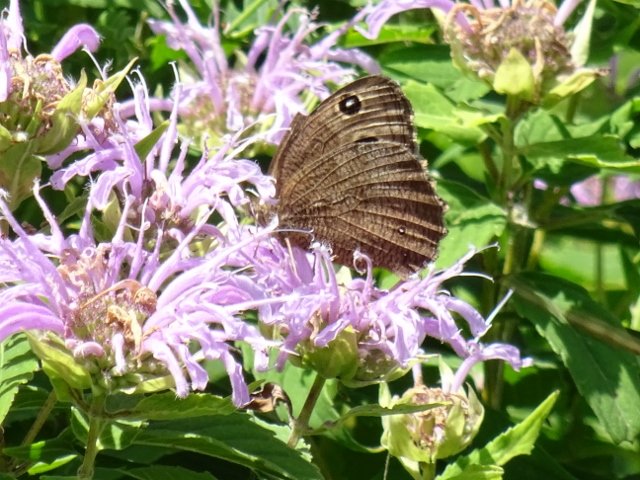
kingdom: Animalia
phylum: Arthropoda
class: Insecta
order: Lepidoptera
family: Nymphalidae
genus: Cercyonis
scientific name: Cercyonis pegala
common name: Common Wood-Nymph
